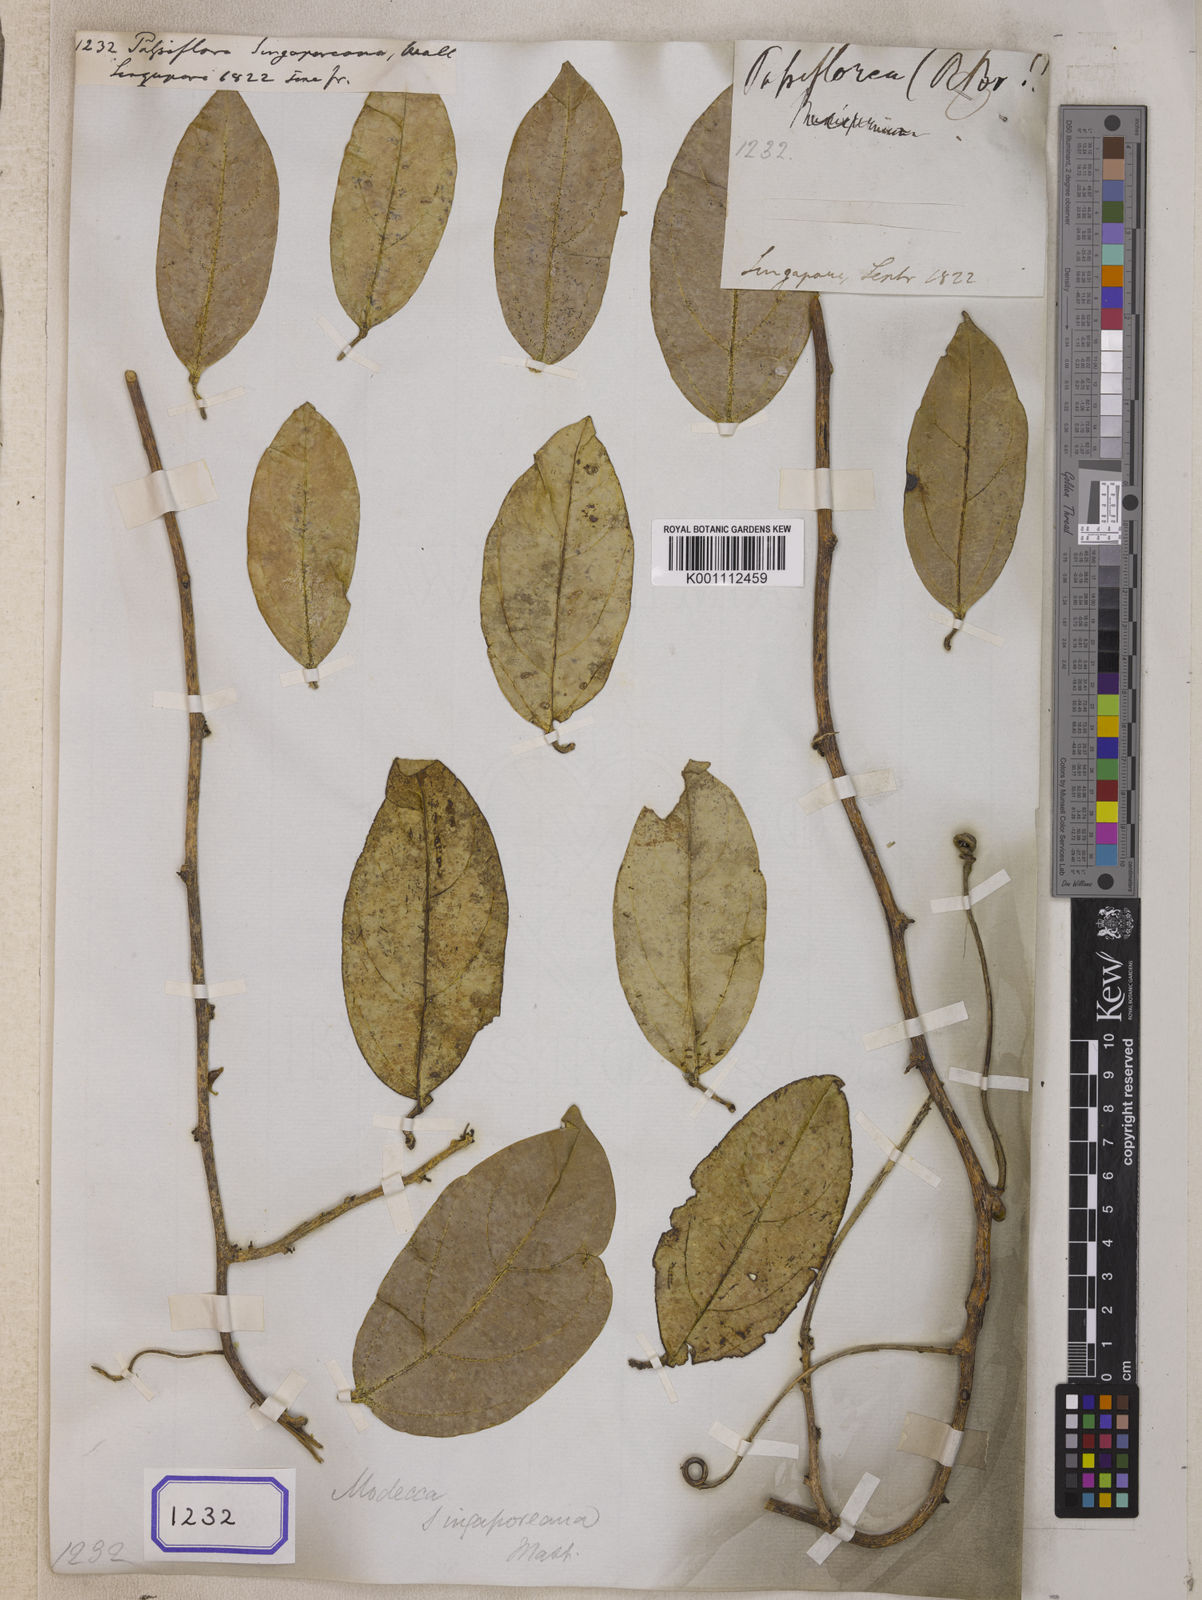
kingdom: Plantae
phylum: Tracheophyta
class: Magnoliopsida
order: Malpighiales
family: Passifloraceae
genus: Passiflora
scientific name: Passiflora
